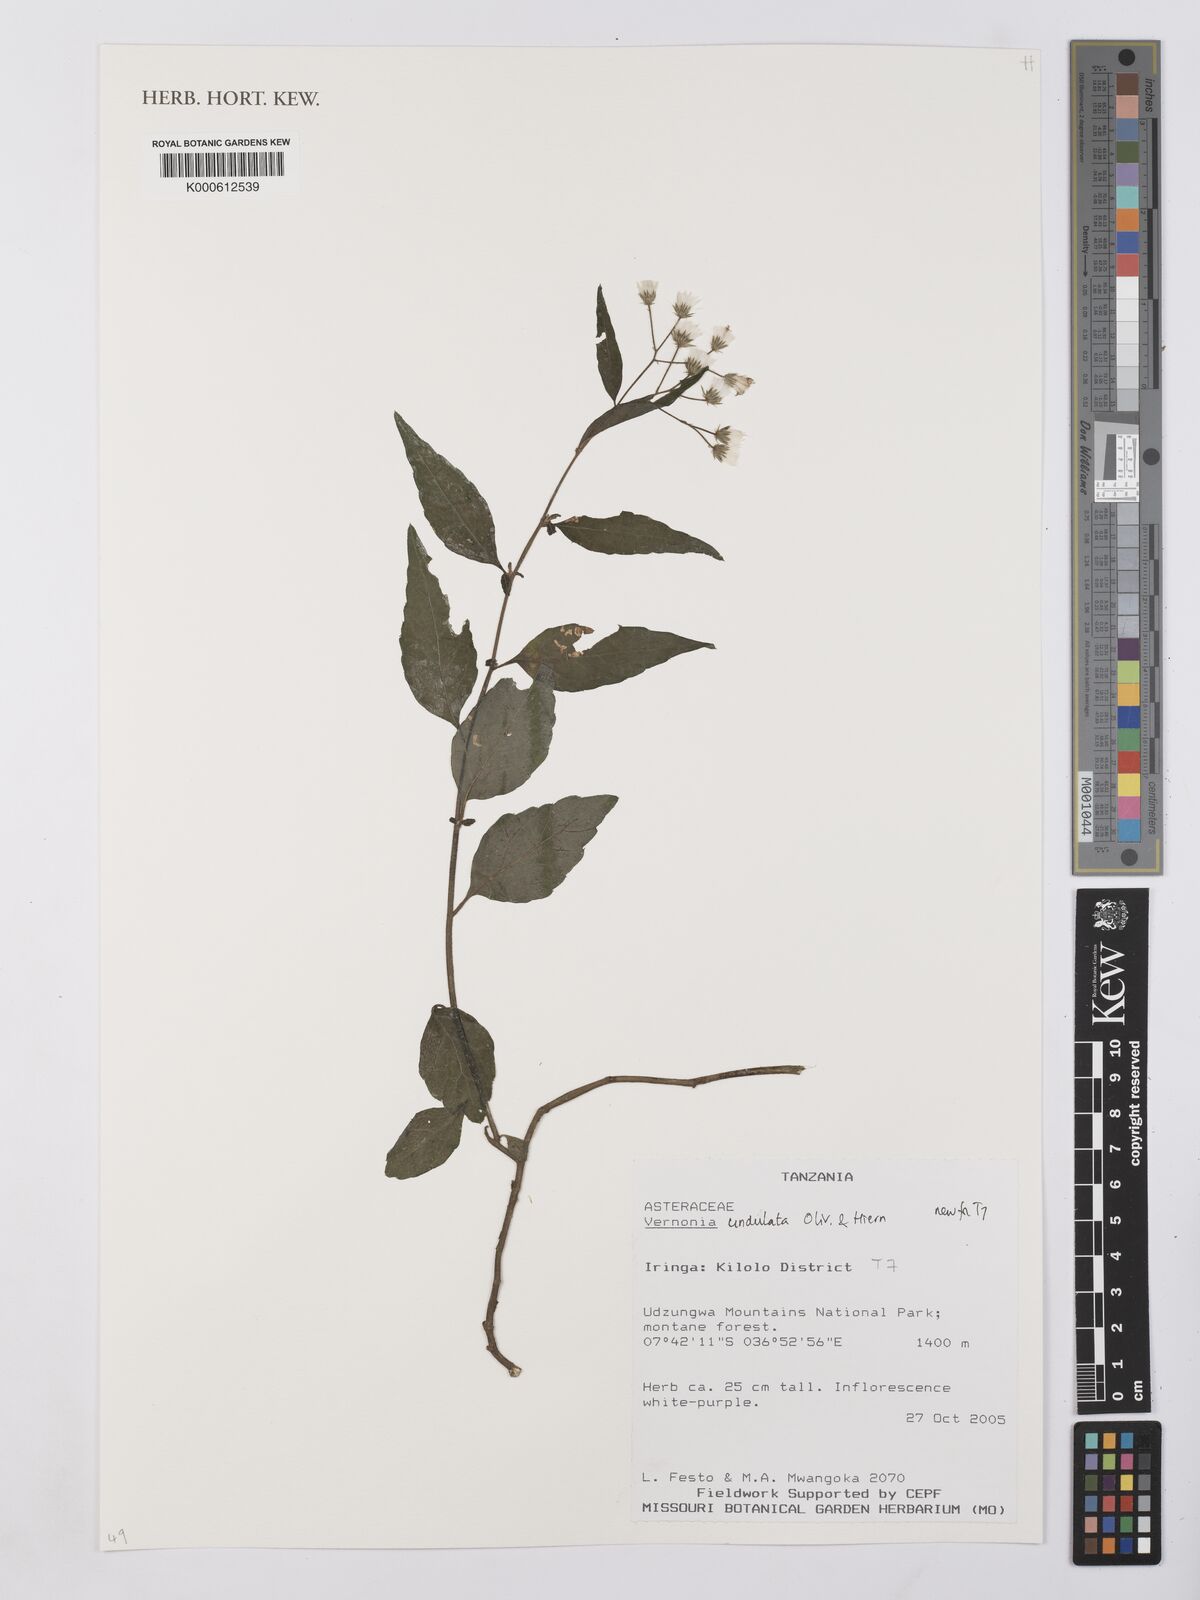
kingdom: Plantae
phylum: Tracheophyta
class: Magnoliopsida
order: Asterales
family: Asteraceae
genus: Vernonia
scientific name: Vernonia golungensis
